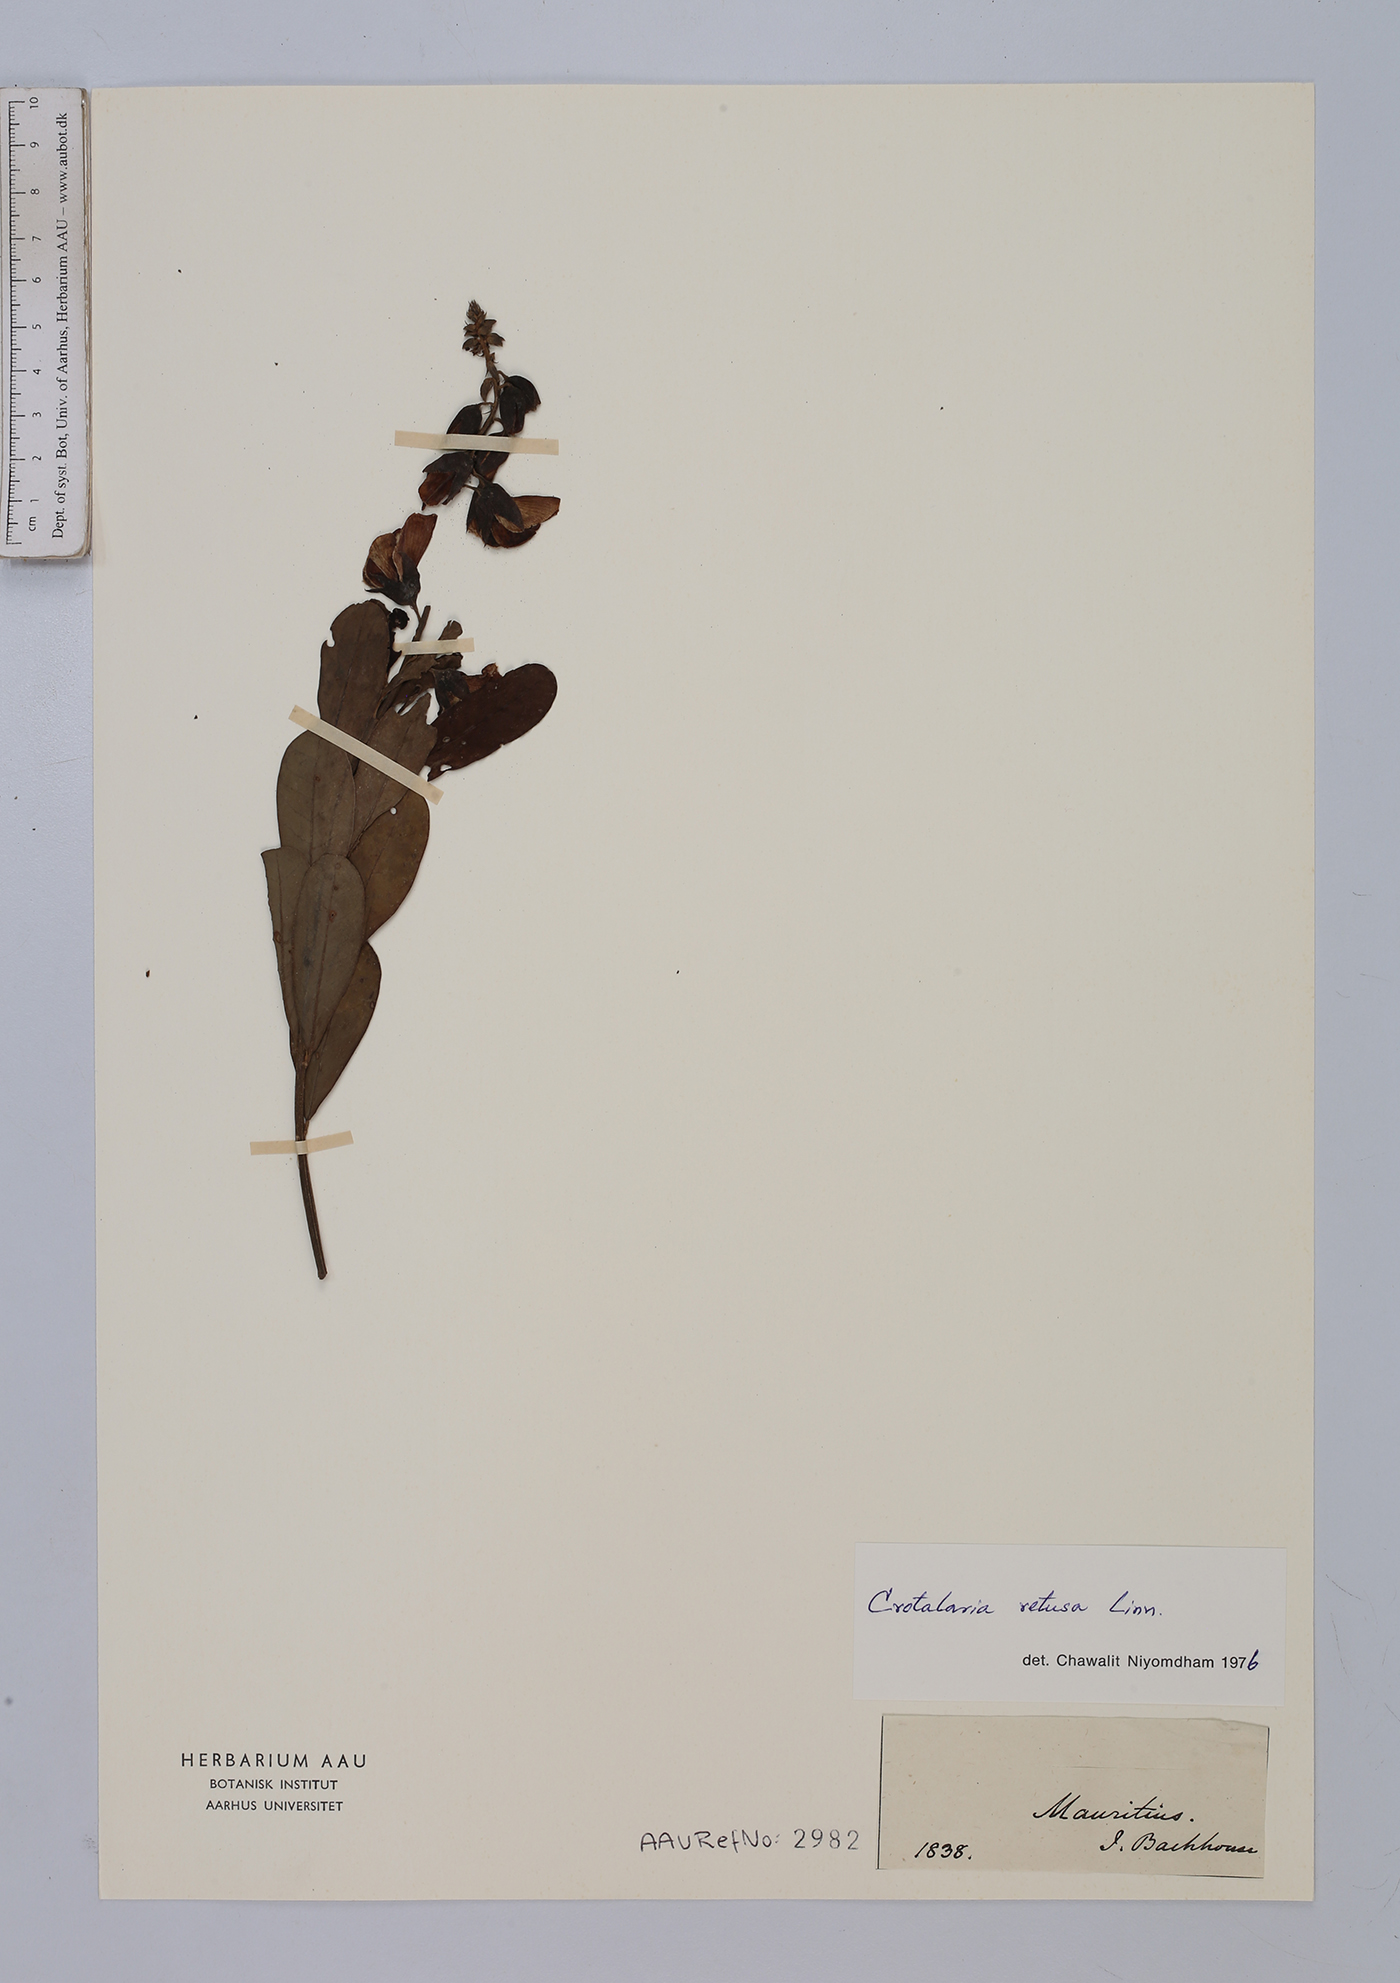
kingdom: Plantae
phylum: Tracheophyta
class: Magnoliopsida
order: Fabales
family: Fabaceae
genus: Crotalaria
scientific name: Crotalaria retusa
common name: Rattleweed
